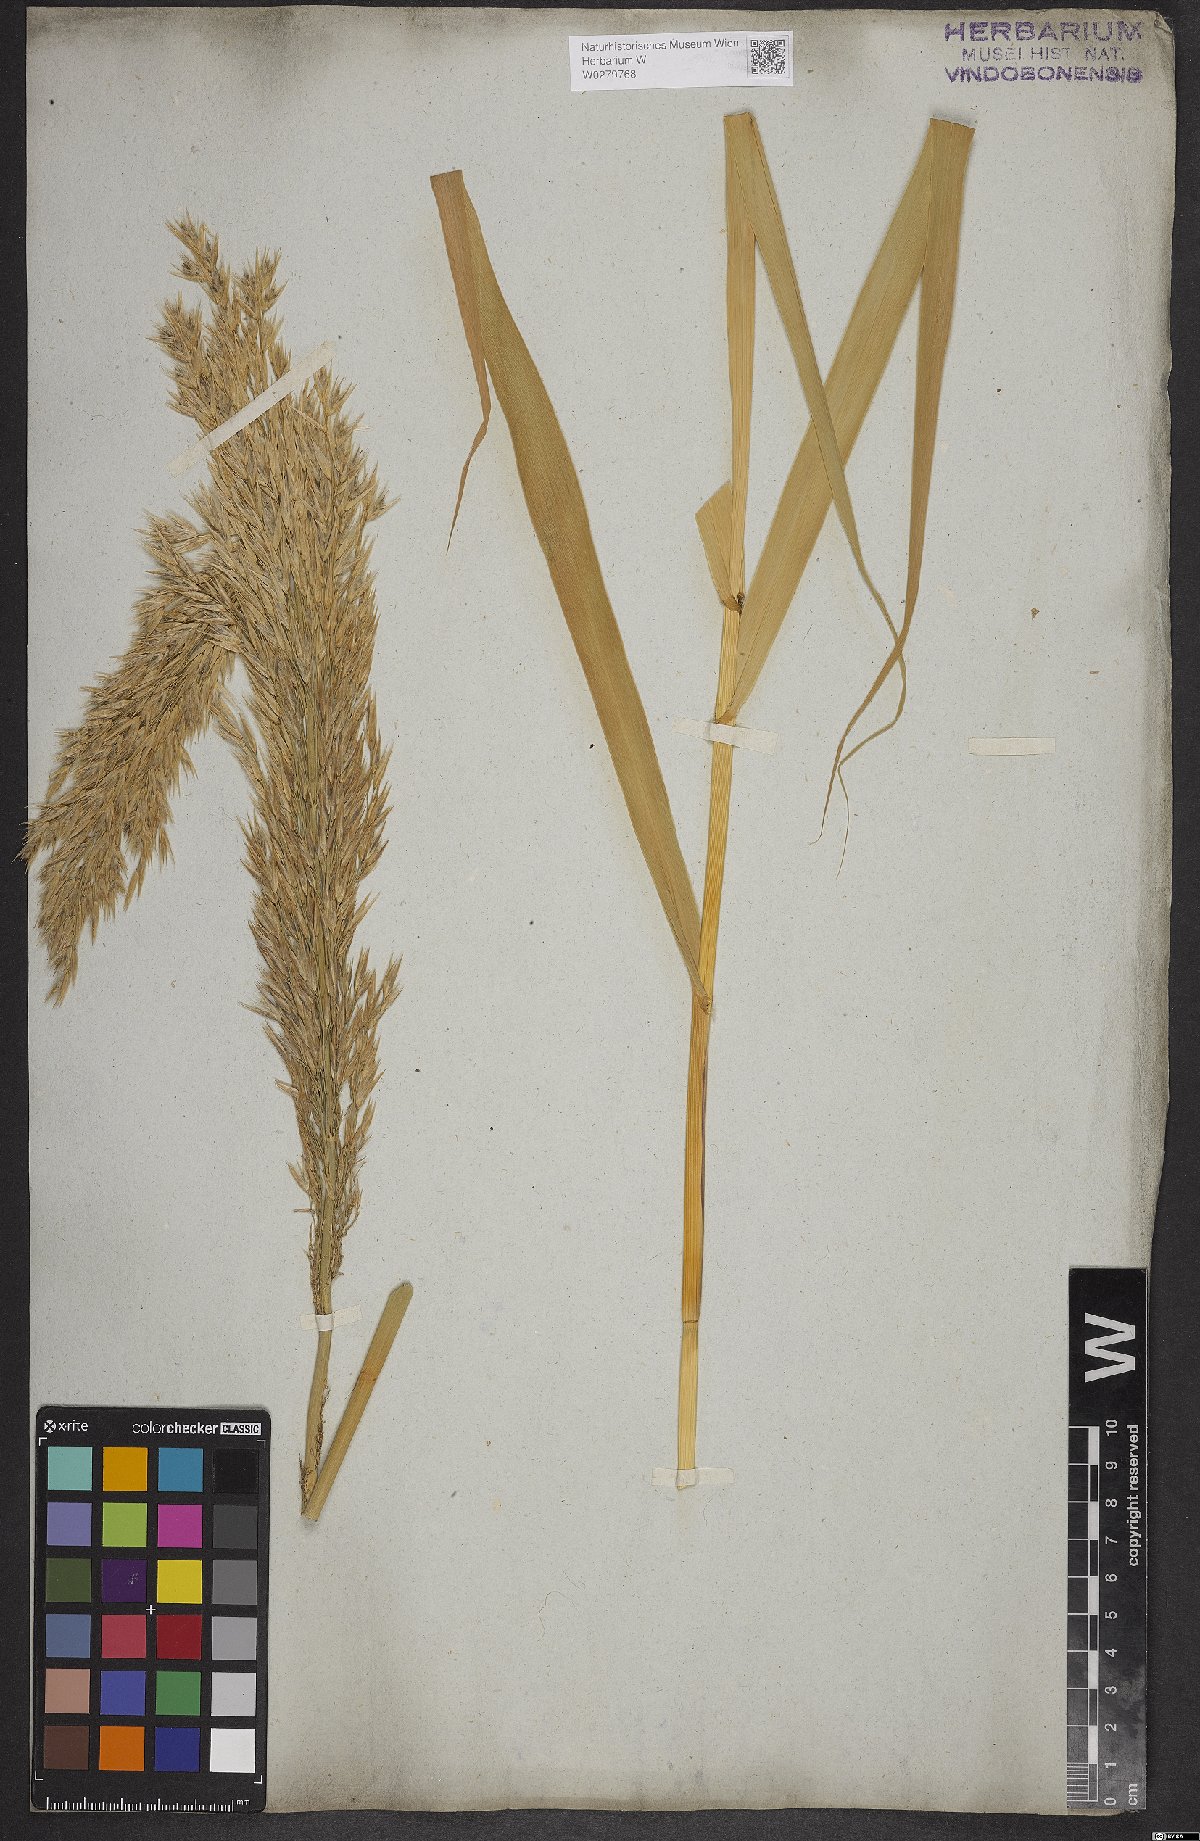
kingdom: Plantae
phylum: Tracheophyta
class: Liliopsida
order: Poales
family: Poaceae
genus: Arundinella
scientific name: Arundinella hispida
